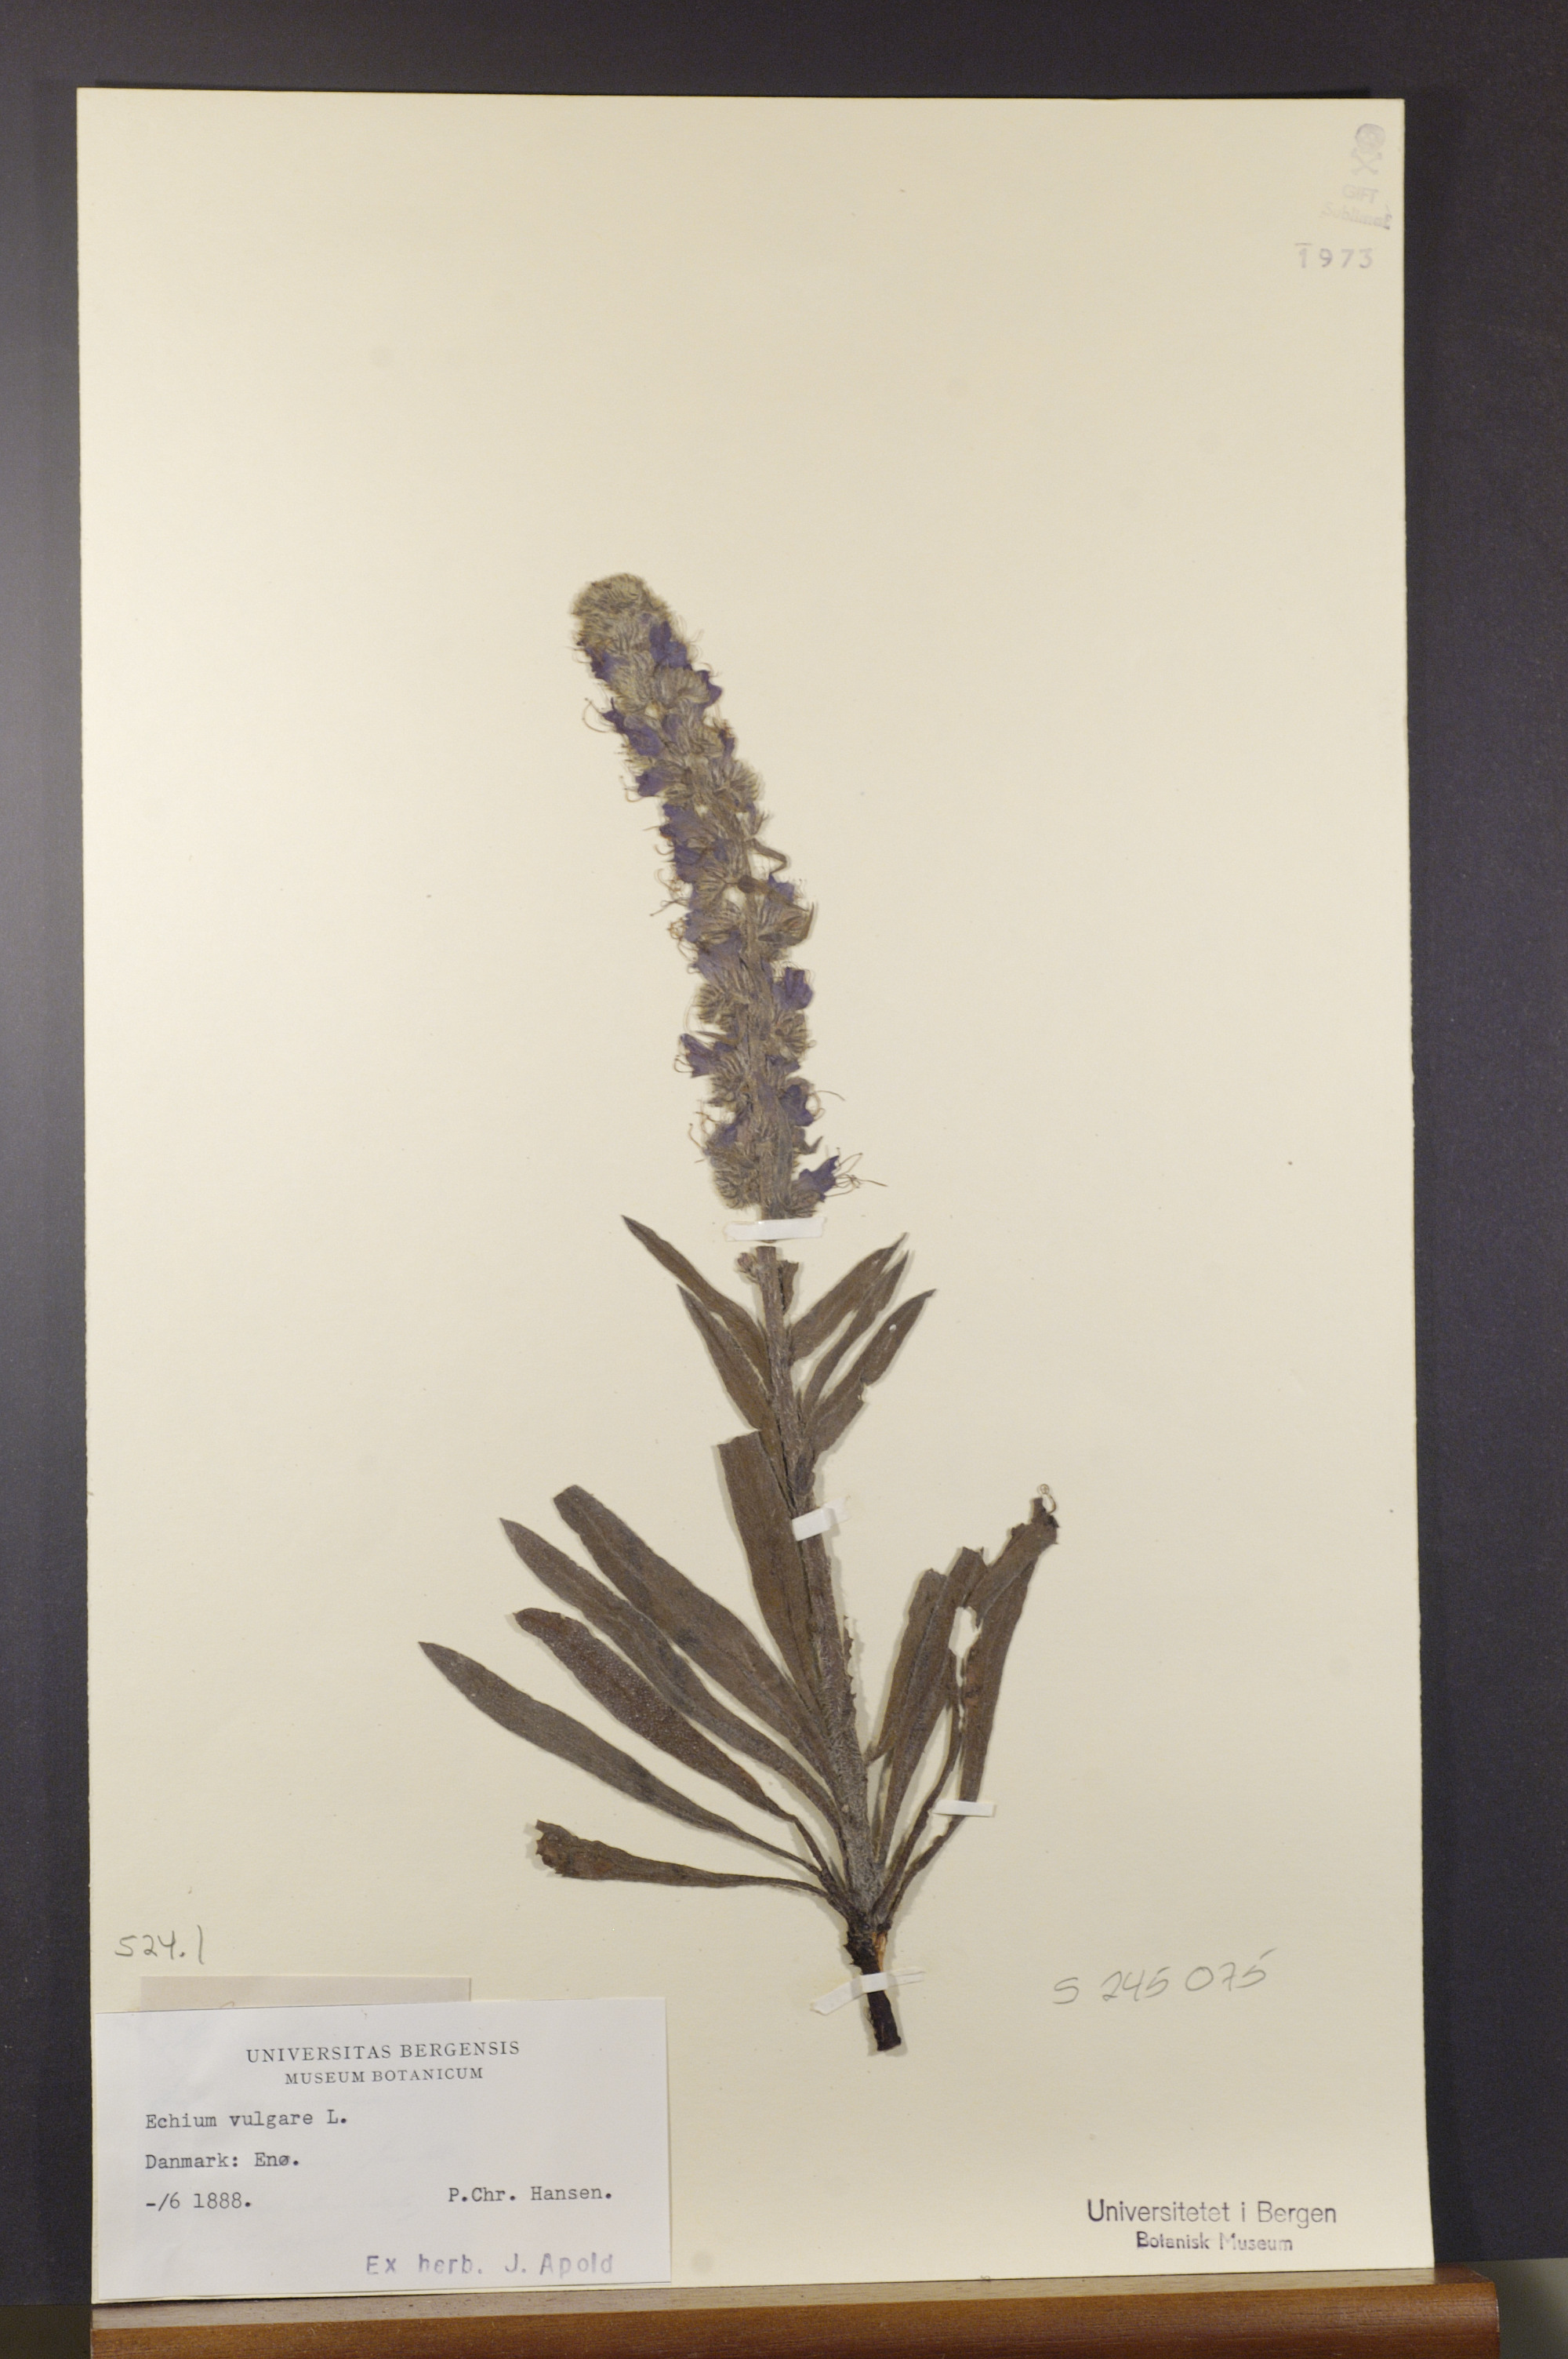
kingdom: Plantae
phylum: Tracheophyta
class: Magnoliopsida
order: Boraginales
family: Boraginaceae
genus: Echium
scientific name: Echium vulgare
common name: Common viper's bugloss
